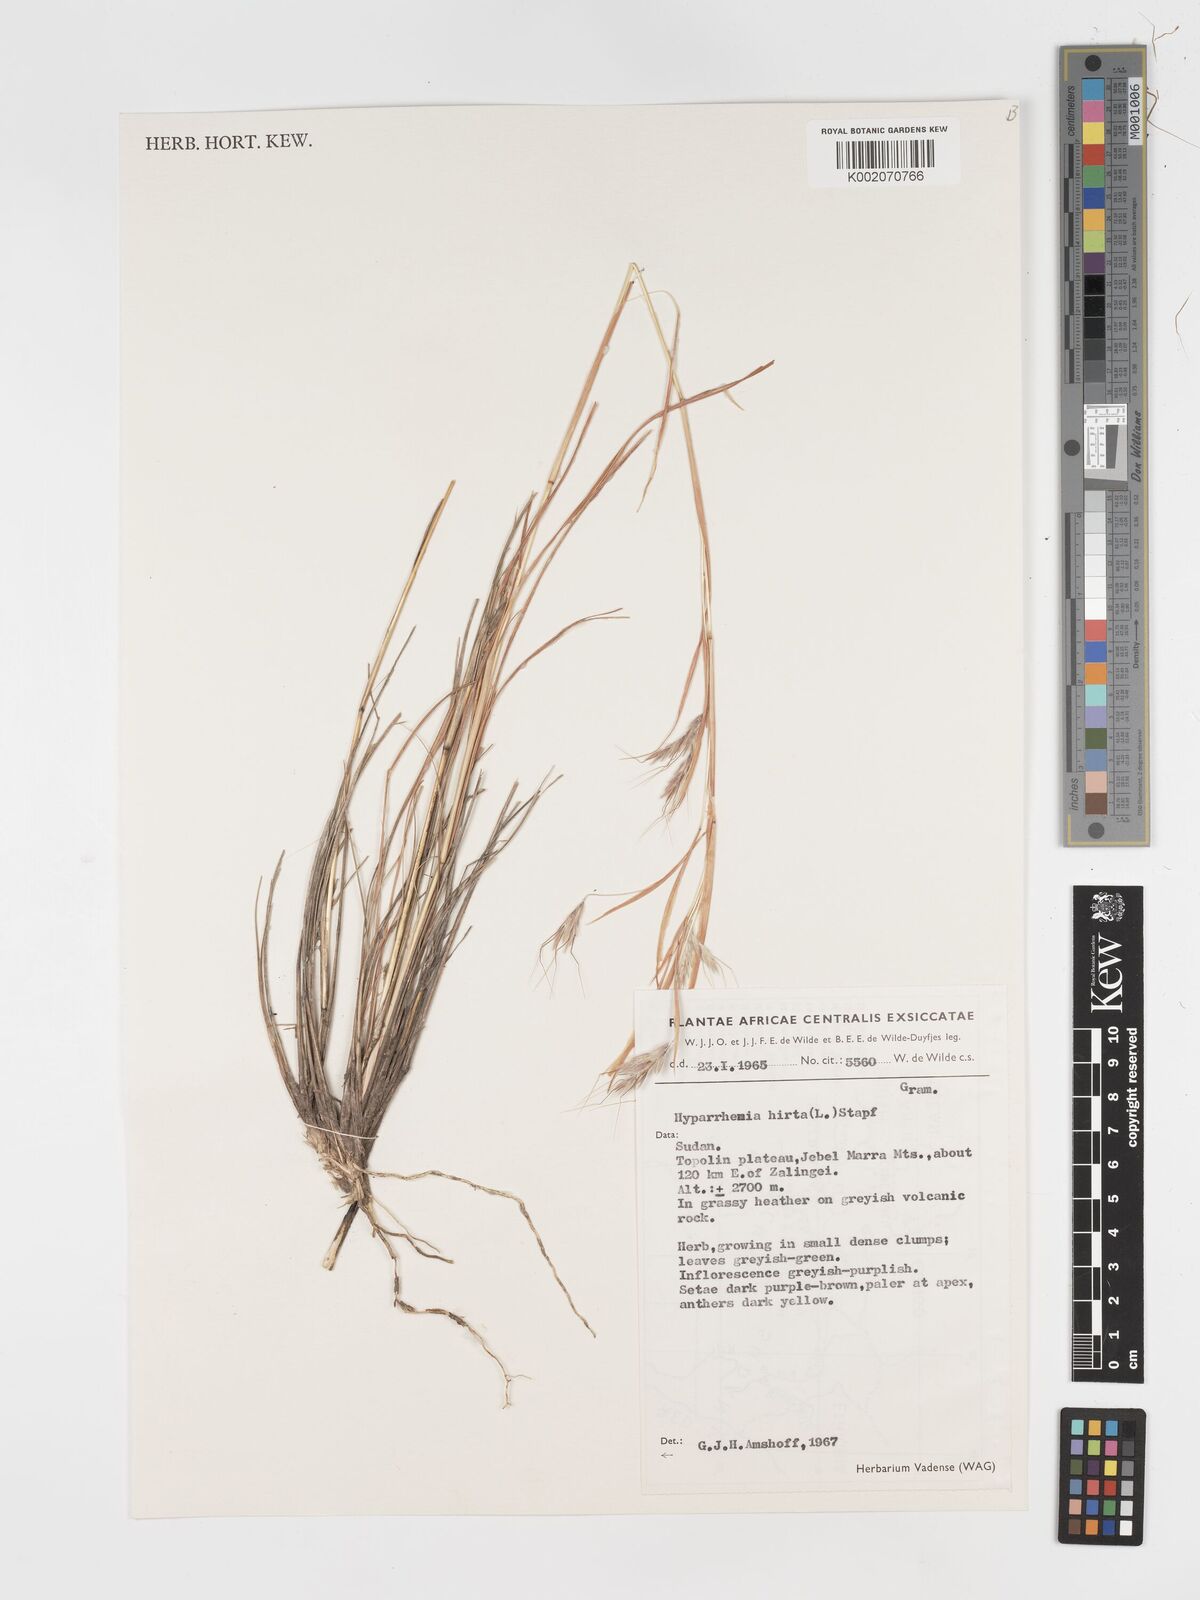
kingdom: Plantae
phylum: Tracheophyta
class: Liliopsida
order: Poales
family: Poaceae
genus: Hyparrhenia
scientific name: Hyparrhenia hirta
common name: Thatching grass
